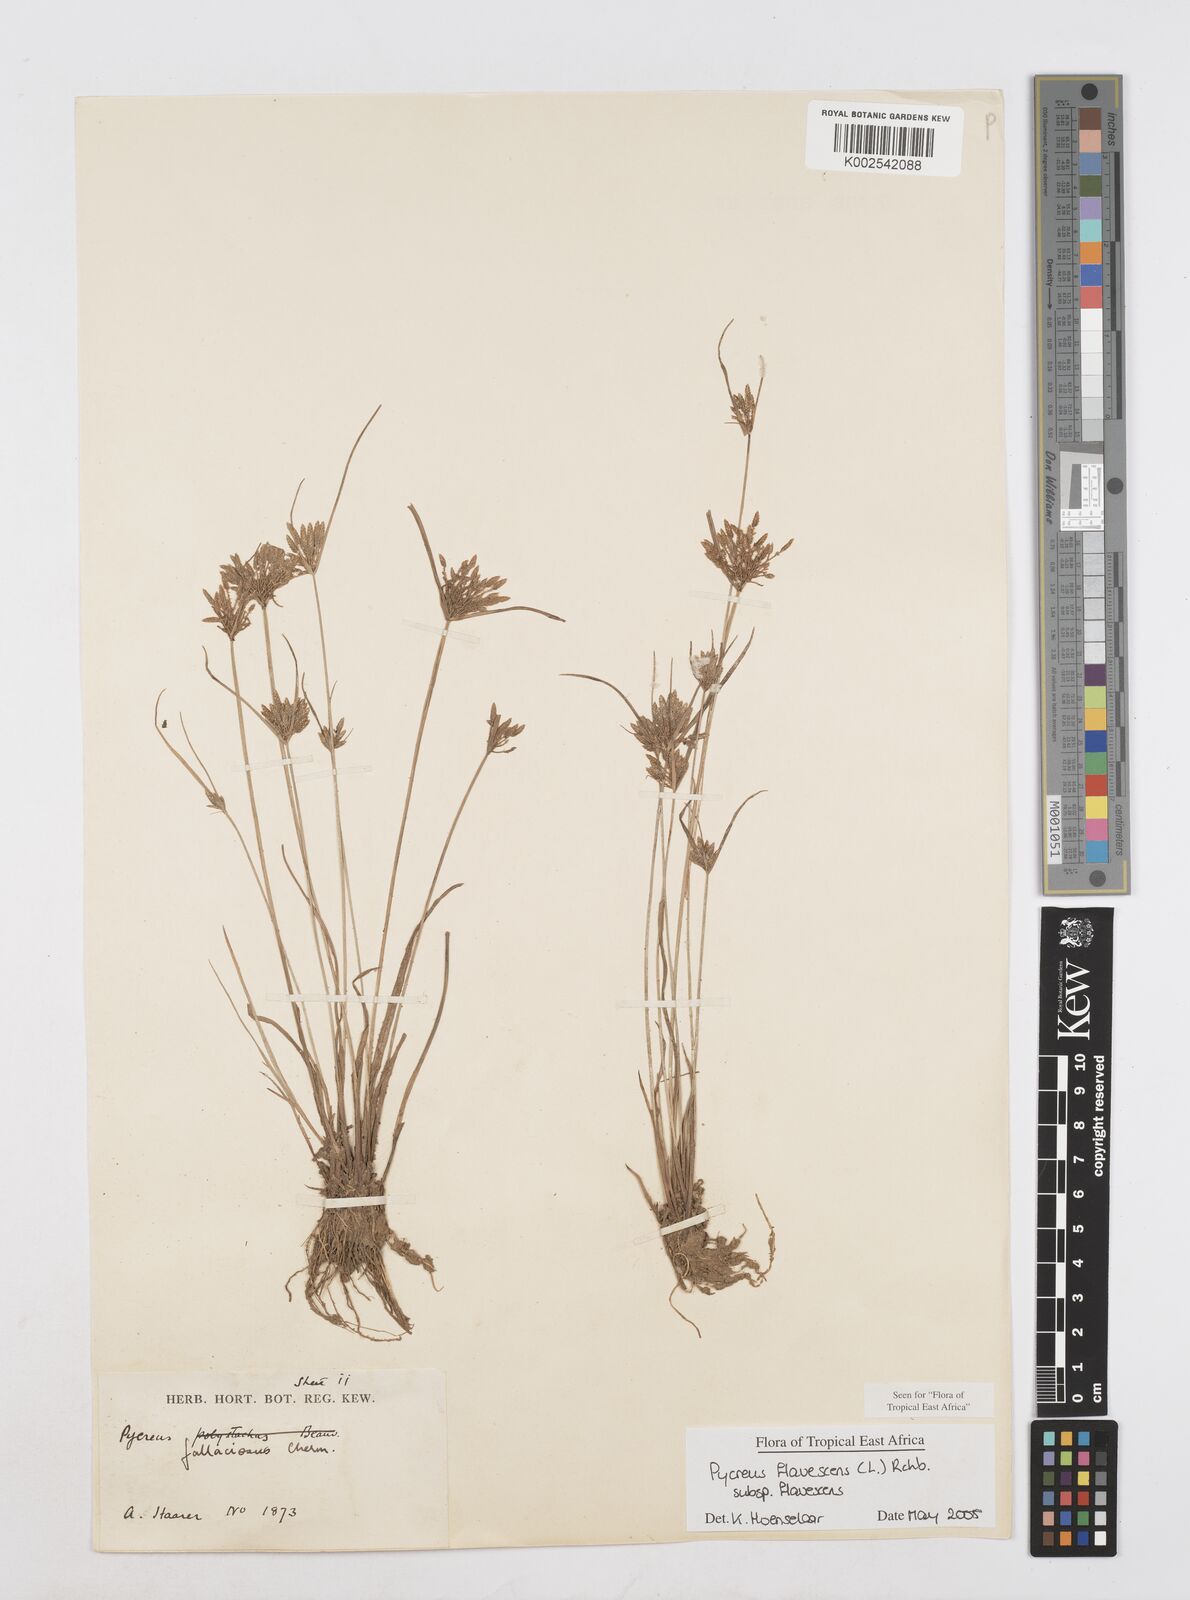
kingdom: Plantae
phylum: Tracheophyta
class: Liliopsida
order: Poales
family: Cyperaceae
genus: Cyperus
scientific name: Cyperus flavescens
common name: Yellow galingale
